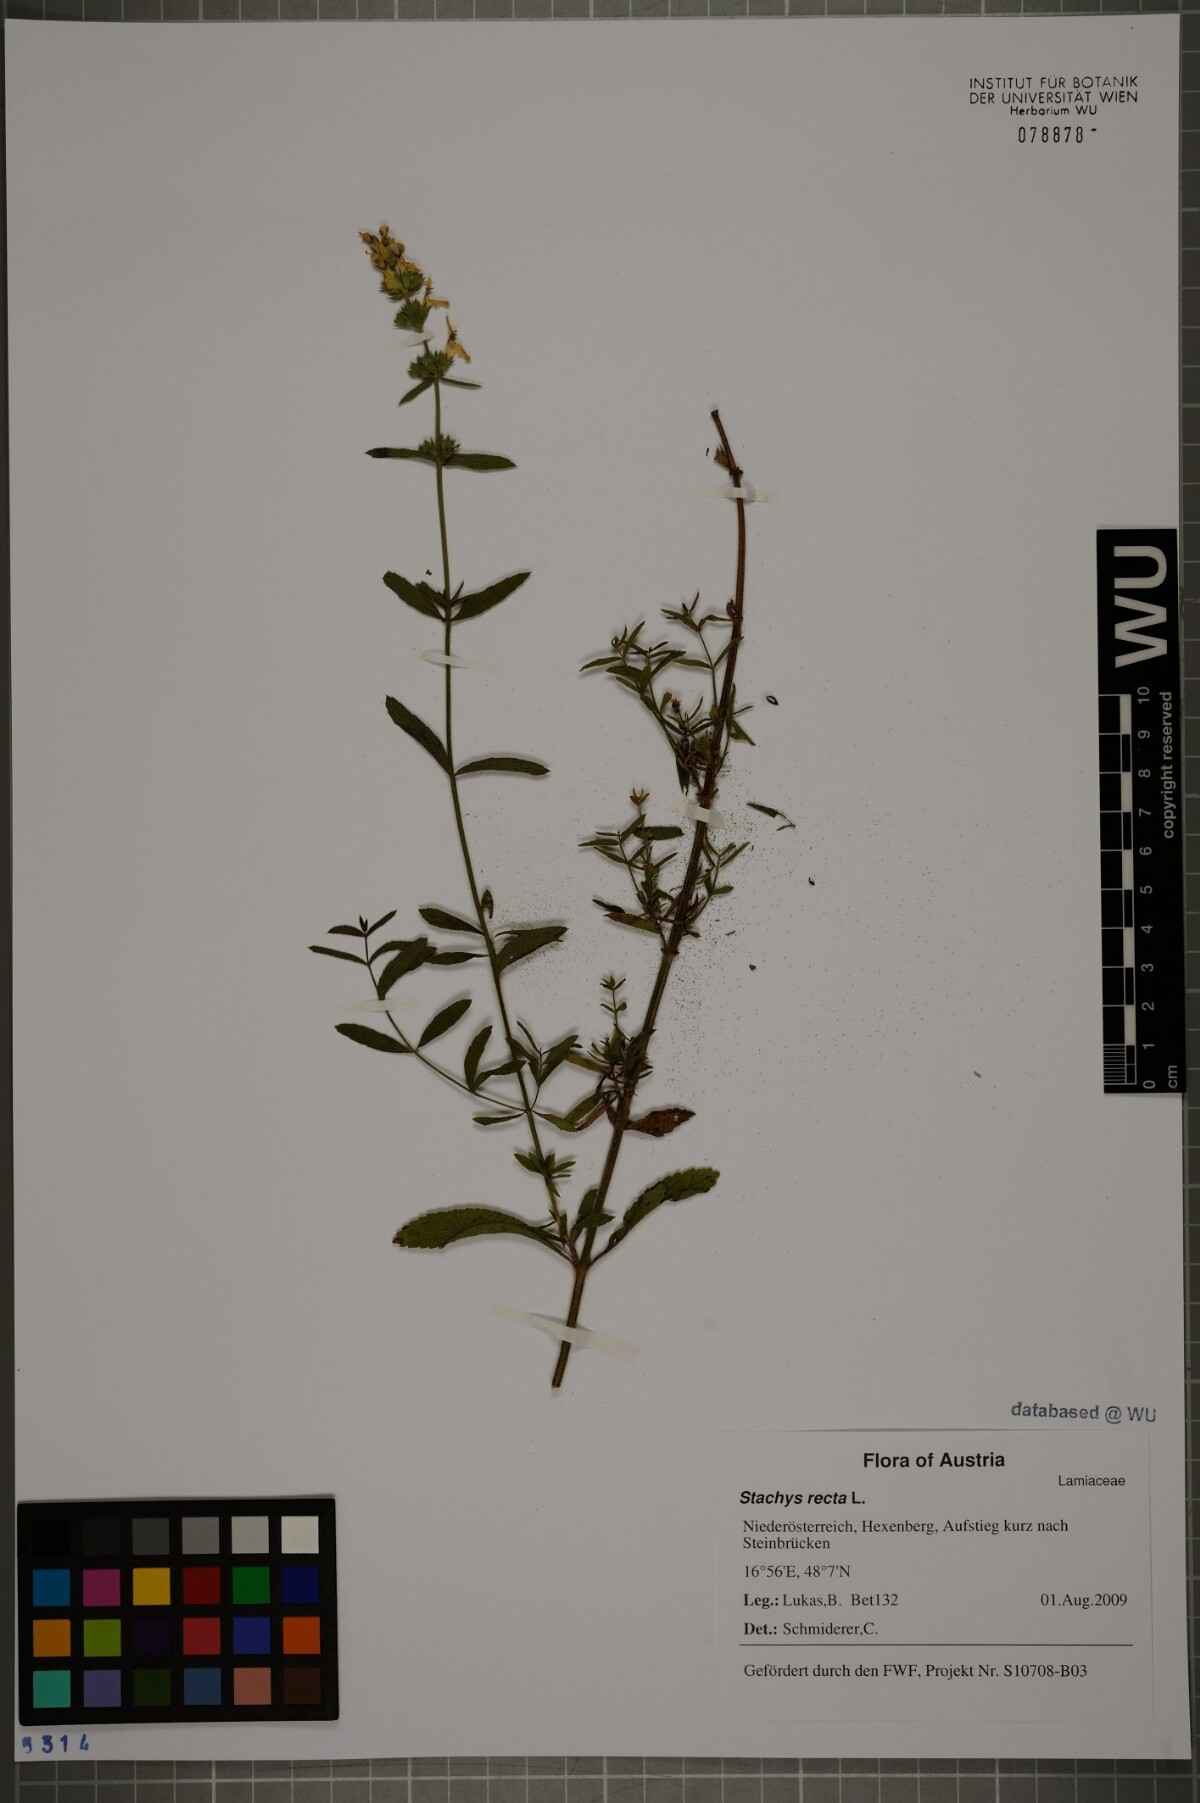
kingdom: Plantae
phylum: Tracheophyta
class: Magnoliopsida
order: Lamiales
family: Lamiaceae
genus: Stachys
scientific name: Stachys recta
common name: Perennial yellow-woundwort
